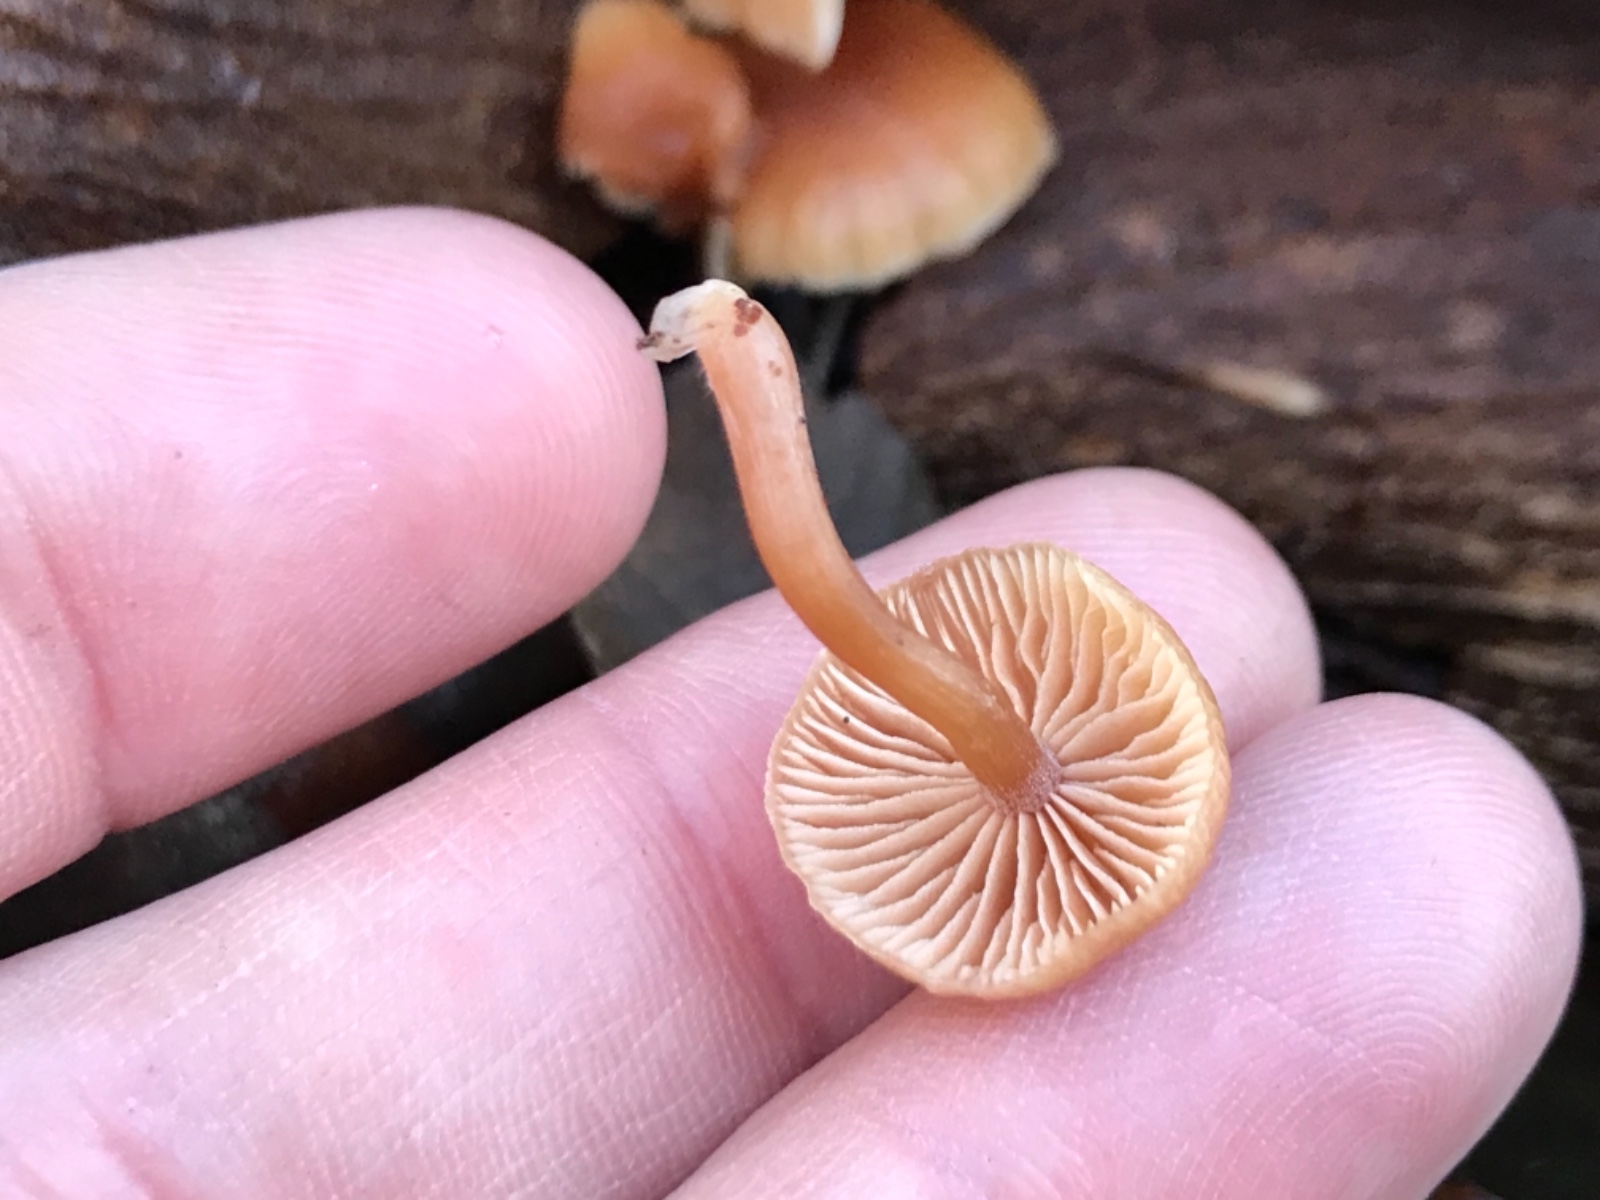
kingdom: Fungi
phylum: Basidiomycota
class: Agaricomycetes
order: Agaricales
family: Tubariaceae
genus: Tubaria
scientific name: Tubaria furfuracea
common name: kliddet fnughat
